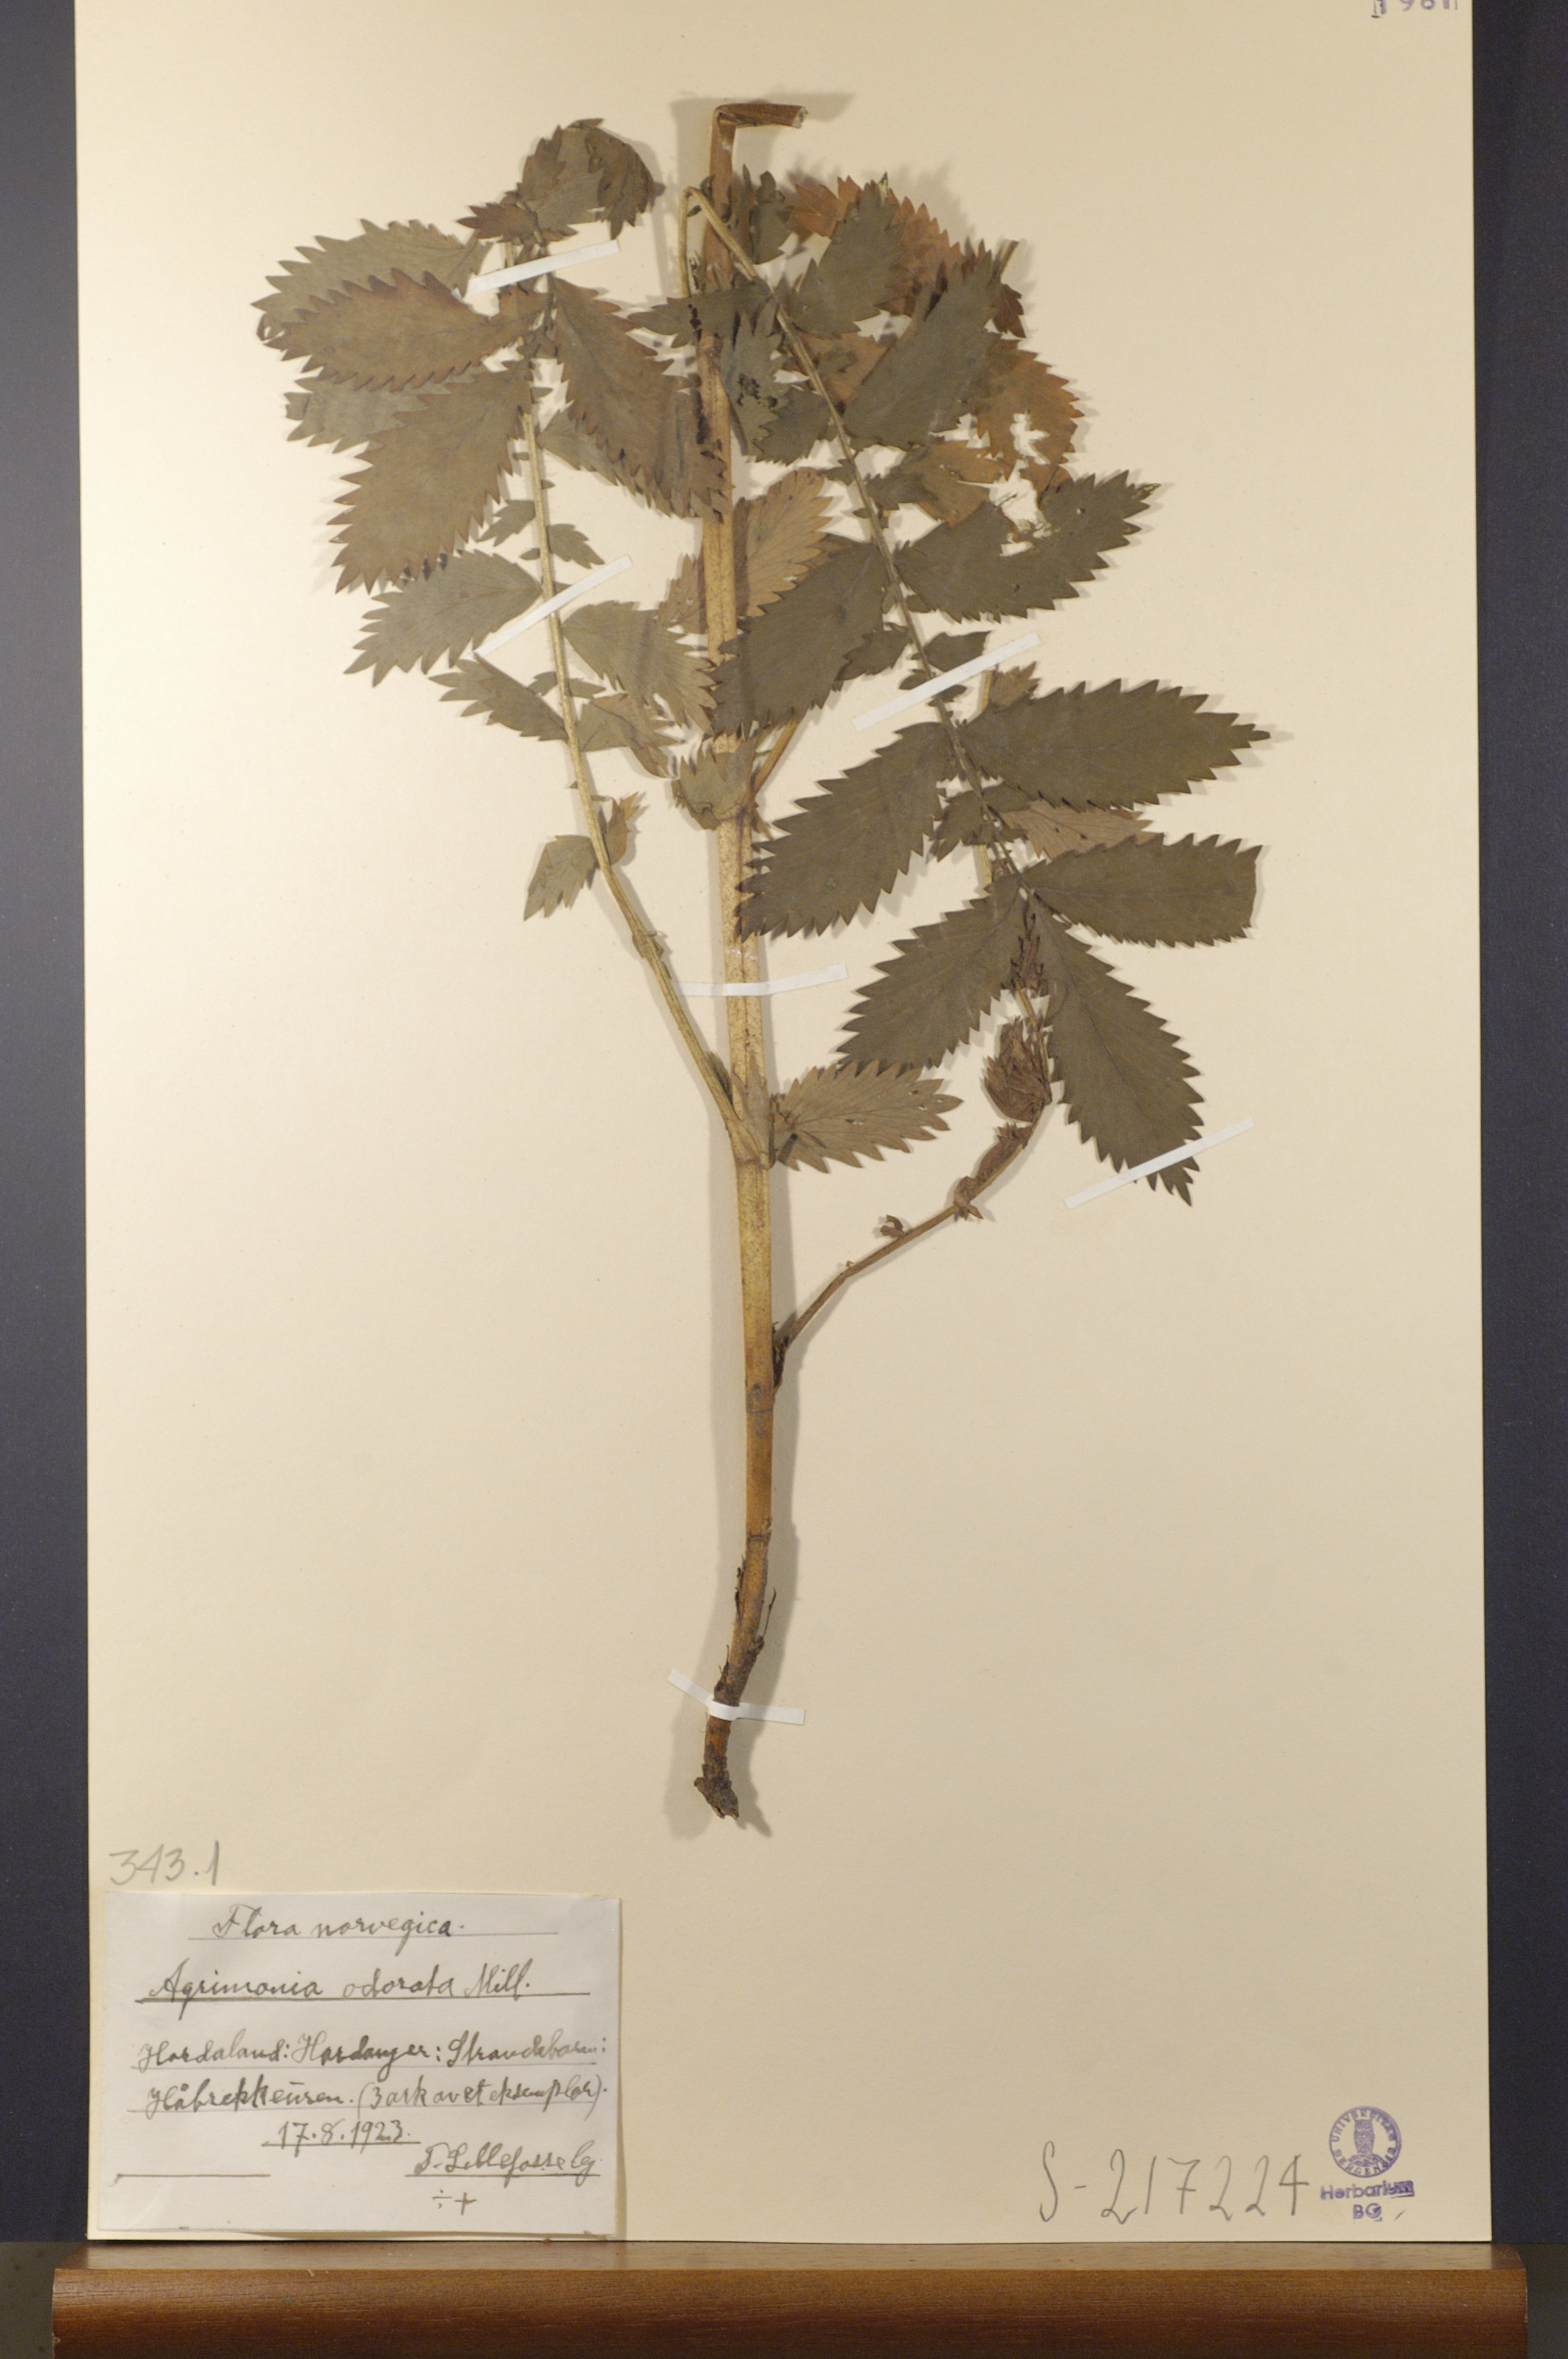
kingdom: Plantae
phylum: Tracheophyta
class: Magnoliopsida
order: Rosales
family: Rosaceae
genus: Agrimonia
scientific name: Agrimonia procera
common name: Fragrant agrimony
